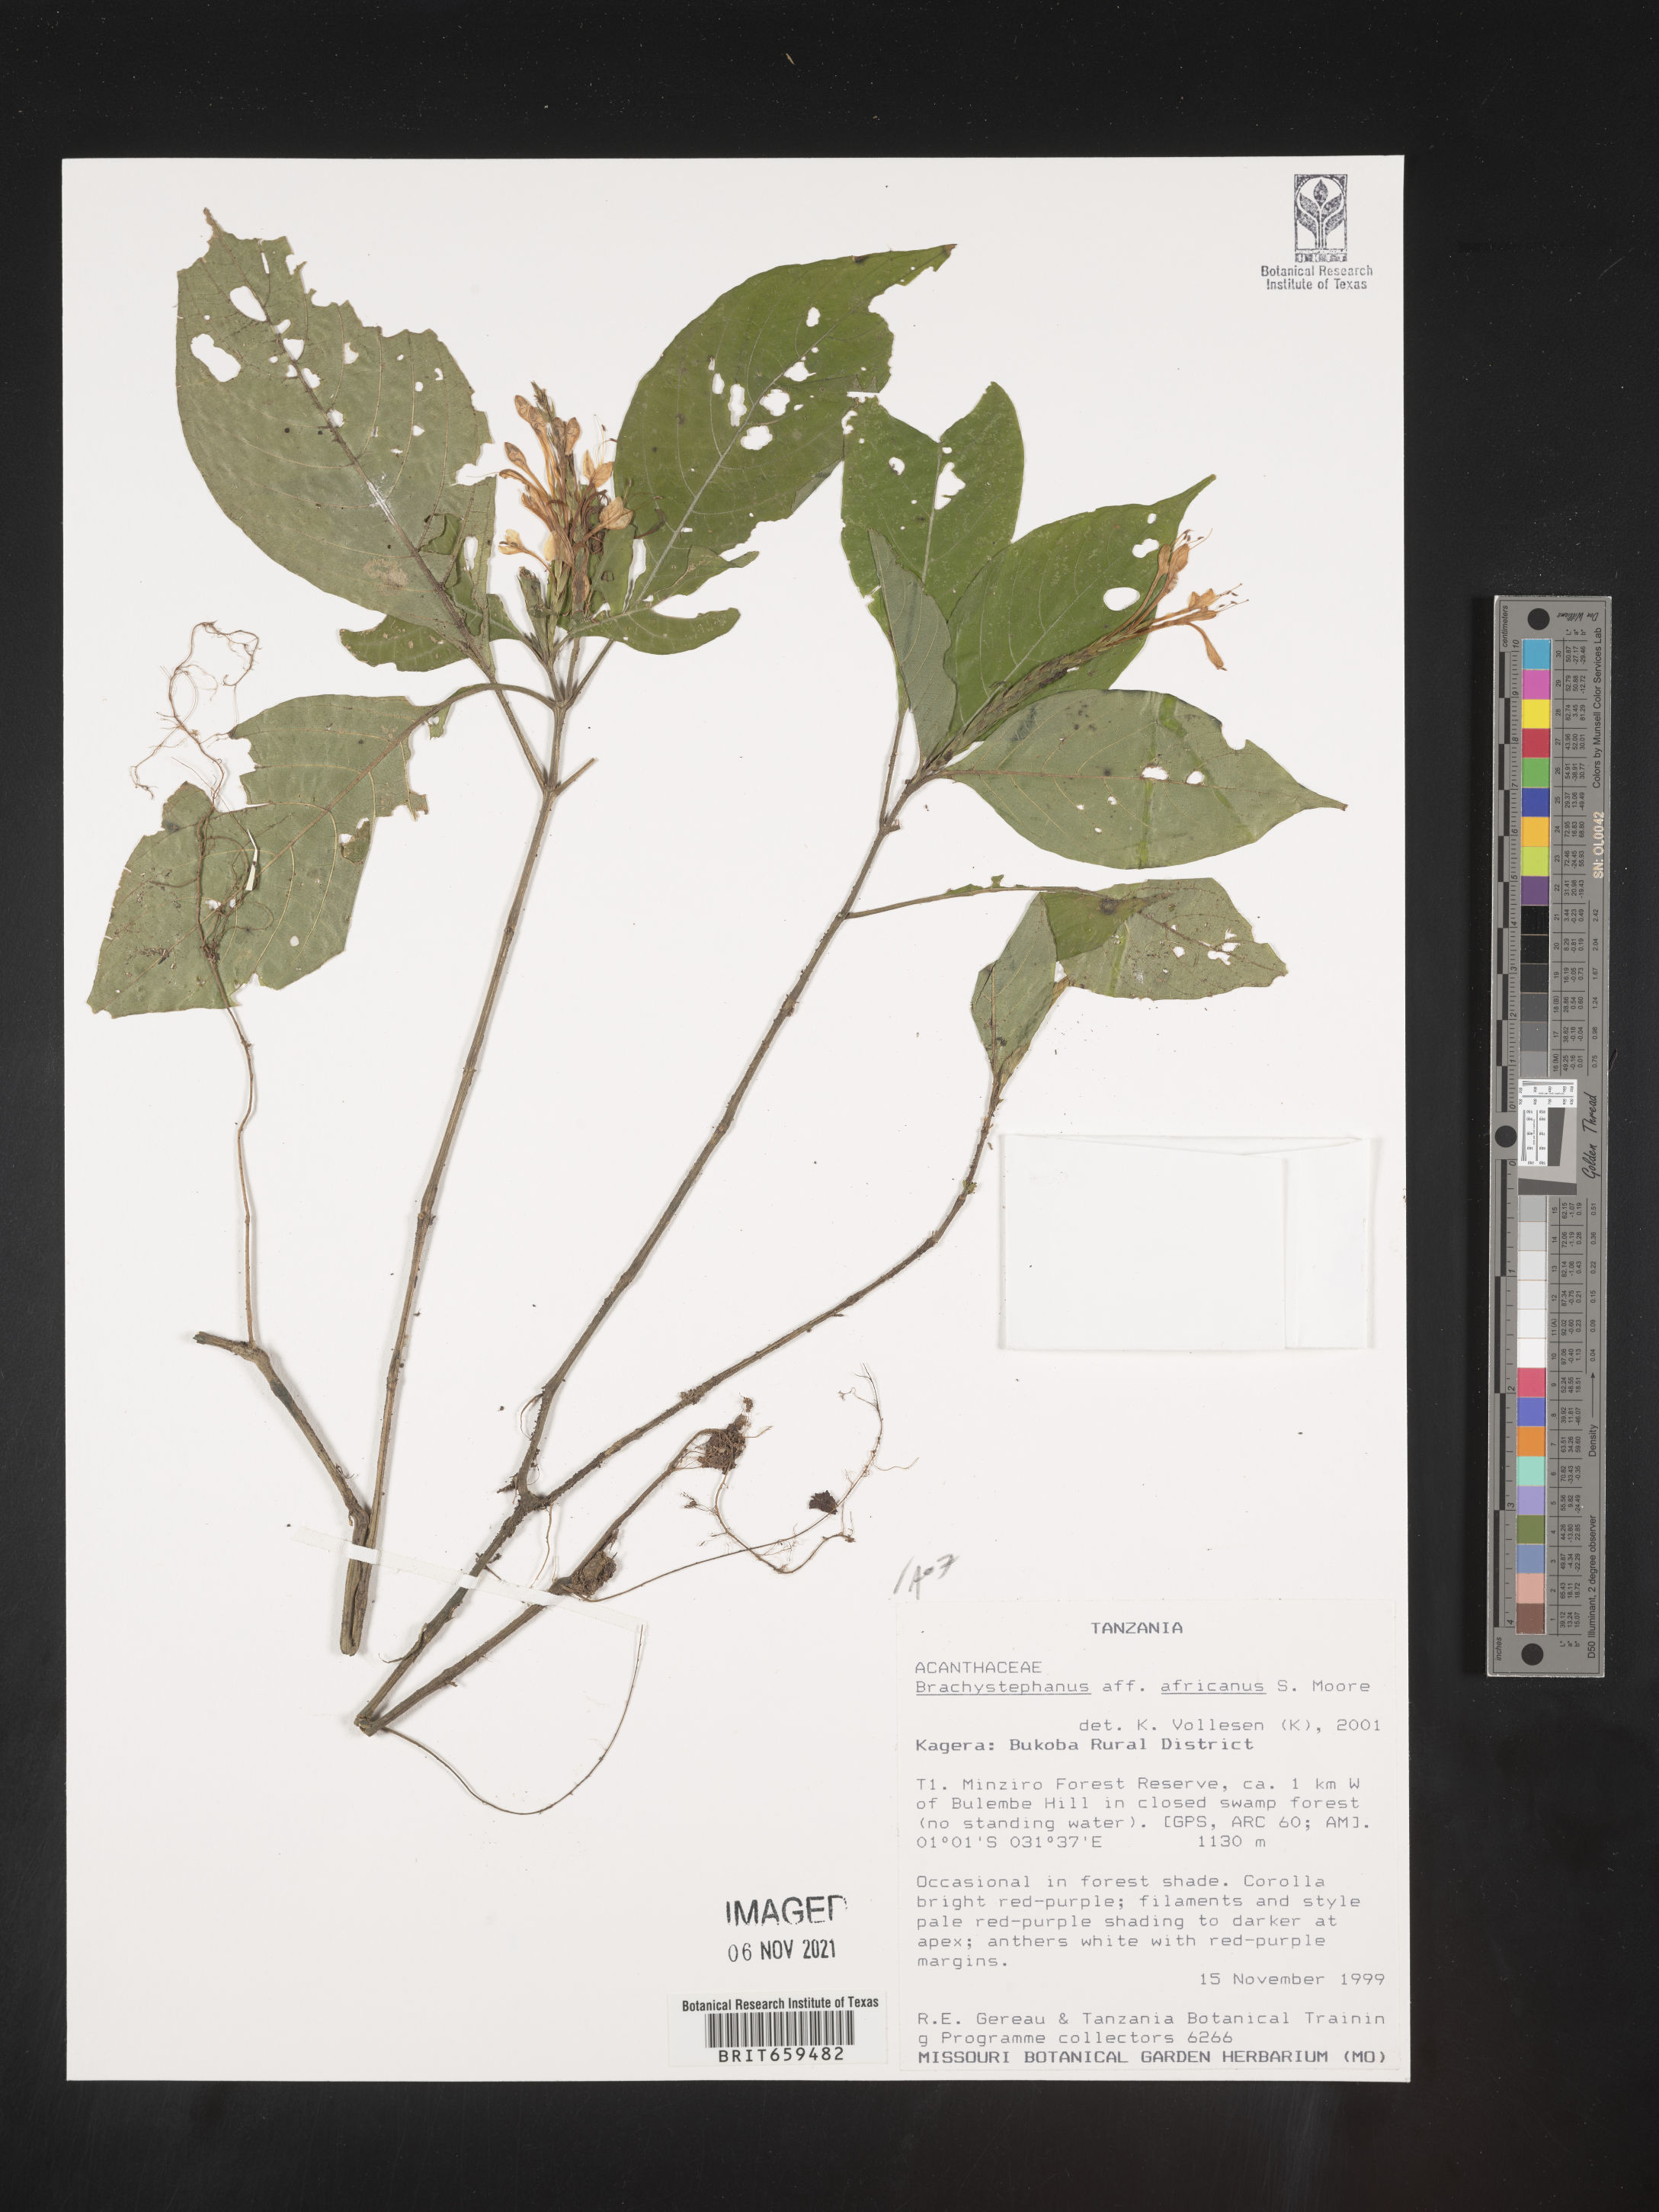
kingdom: Plantae
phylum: Tracheophyta
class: Magnoliopsida
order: Lamiales
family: Acanthaceae
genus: Brachystephanus
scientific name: Brachystephanus africanus
